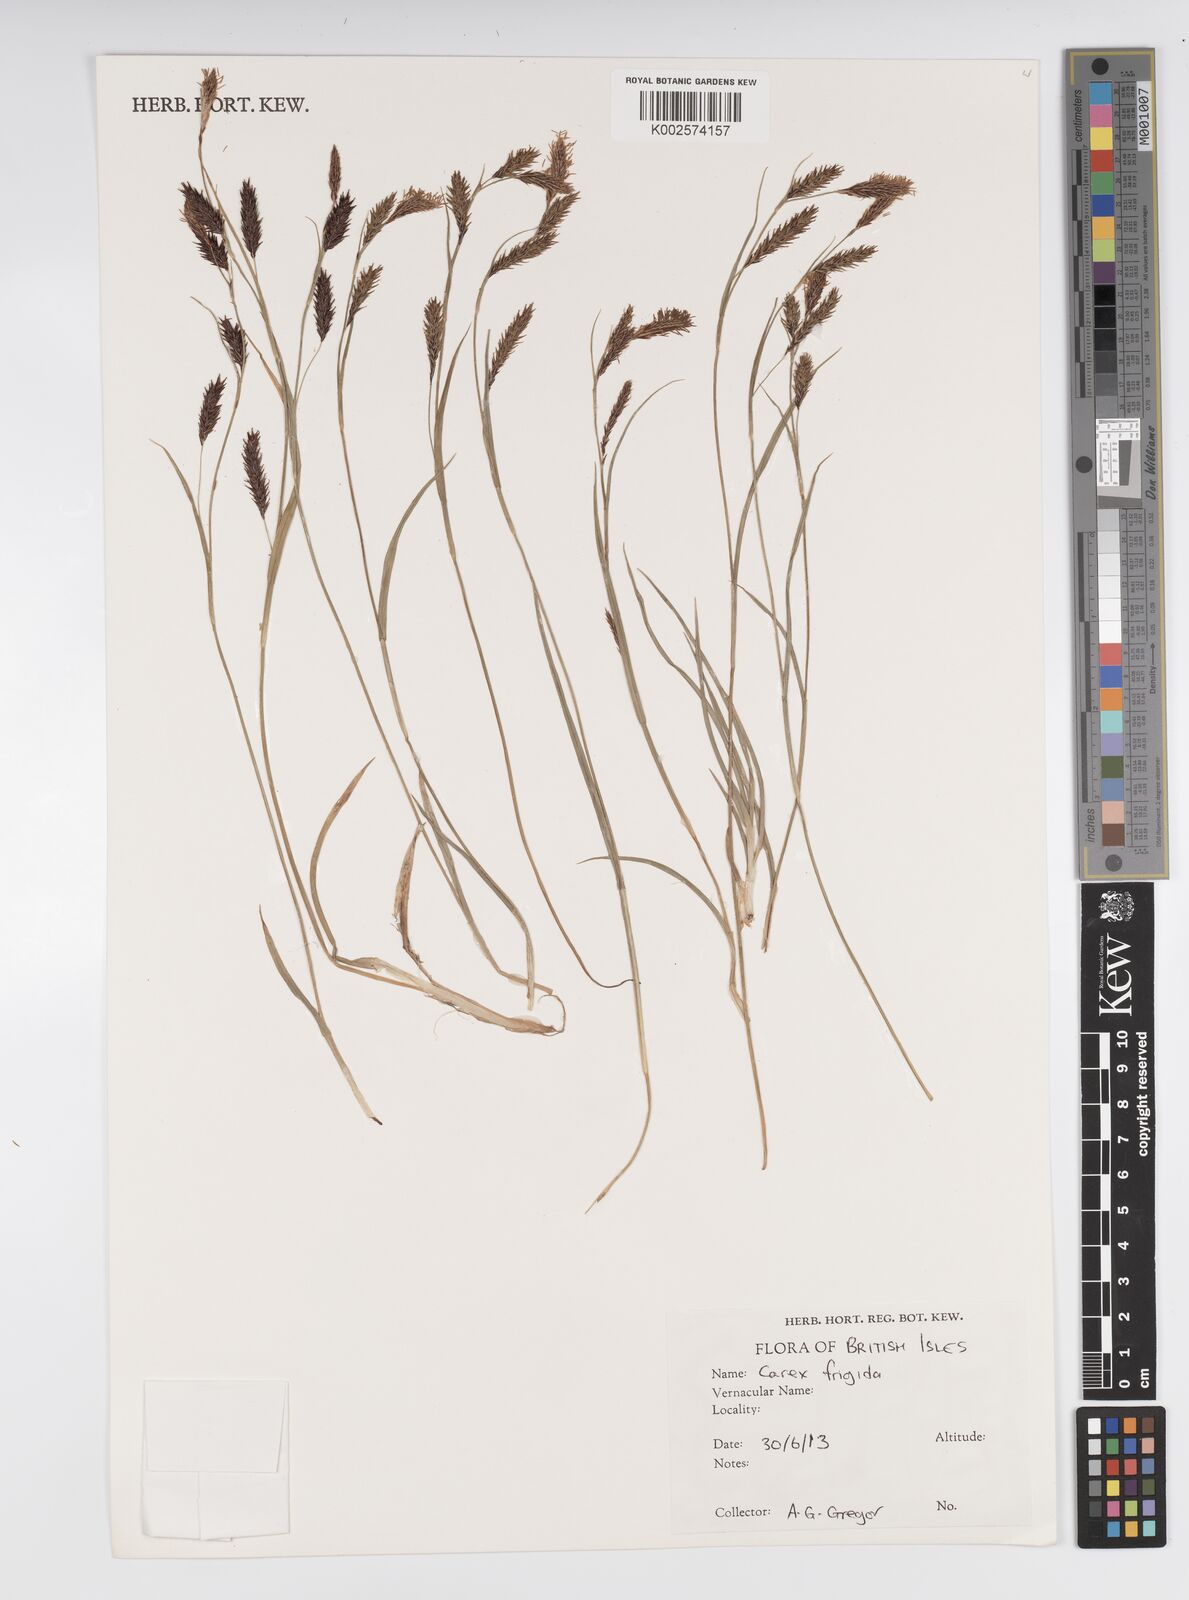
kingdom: Plantae
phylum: Tracheophyta
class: Liliopsida
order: Poales
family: Cyperaceae
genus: Carex
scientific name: Carex ferruginea
